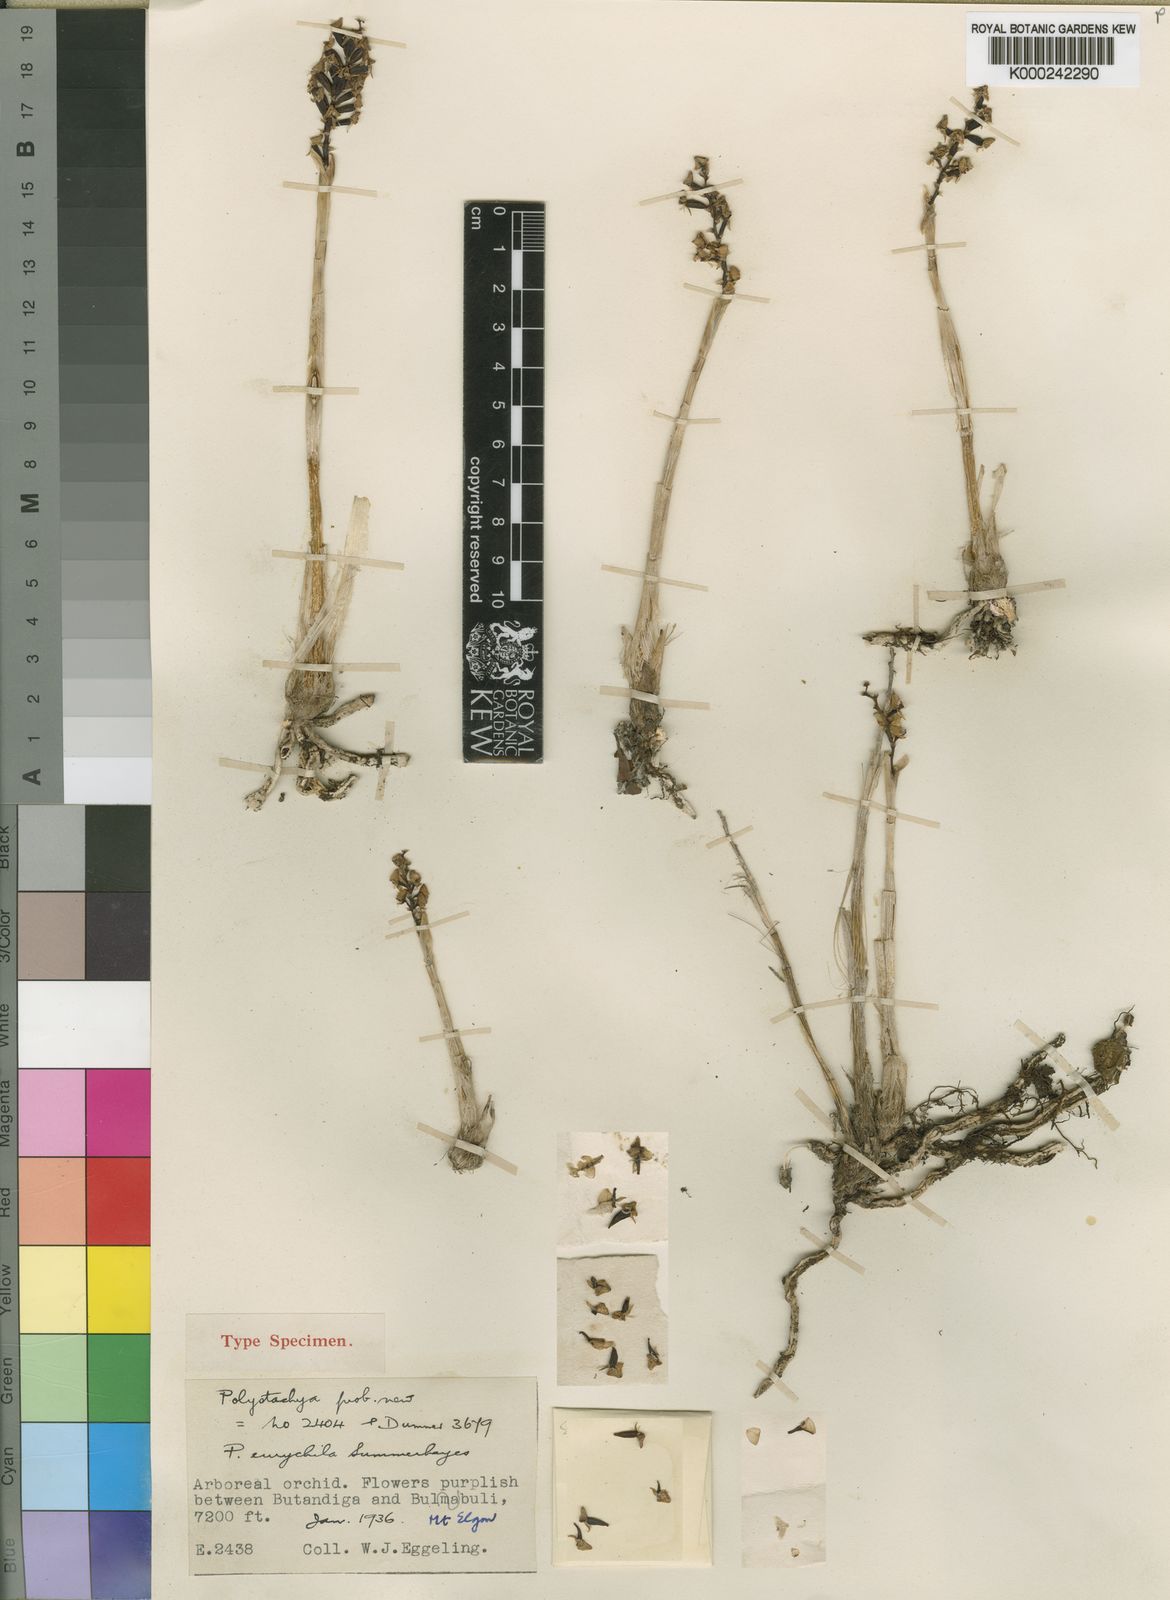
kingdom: Plantae
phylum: Tracheophyta
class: Liliopsida
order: Asparagales
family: Orchidaceae
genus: Polystachya
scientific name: Polystachya eurychila
